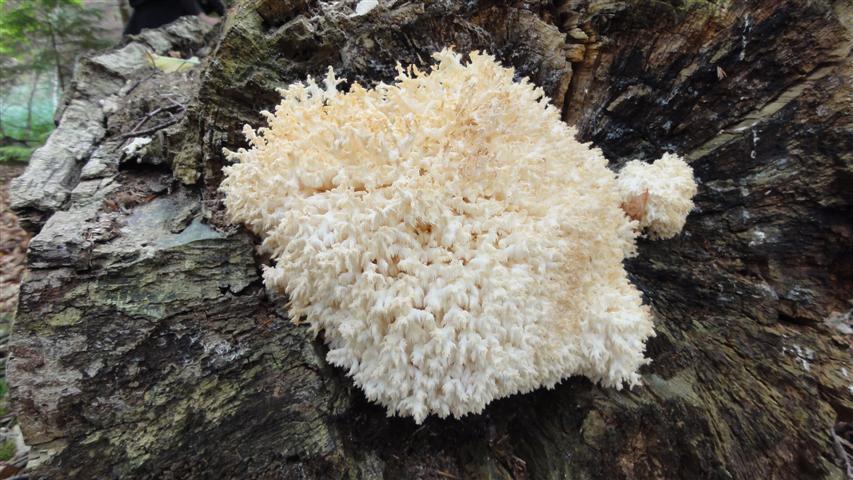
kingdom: Fungi
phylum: Basidiomycota
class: Agaricomycetes
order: Russulales
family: Hericiaceae
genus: Hericium
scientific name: Hericium coralloides
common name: koralpigsvamp
